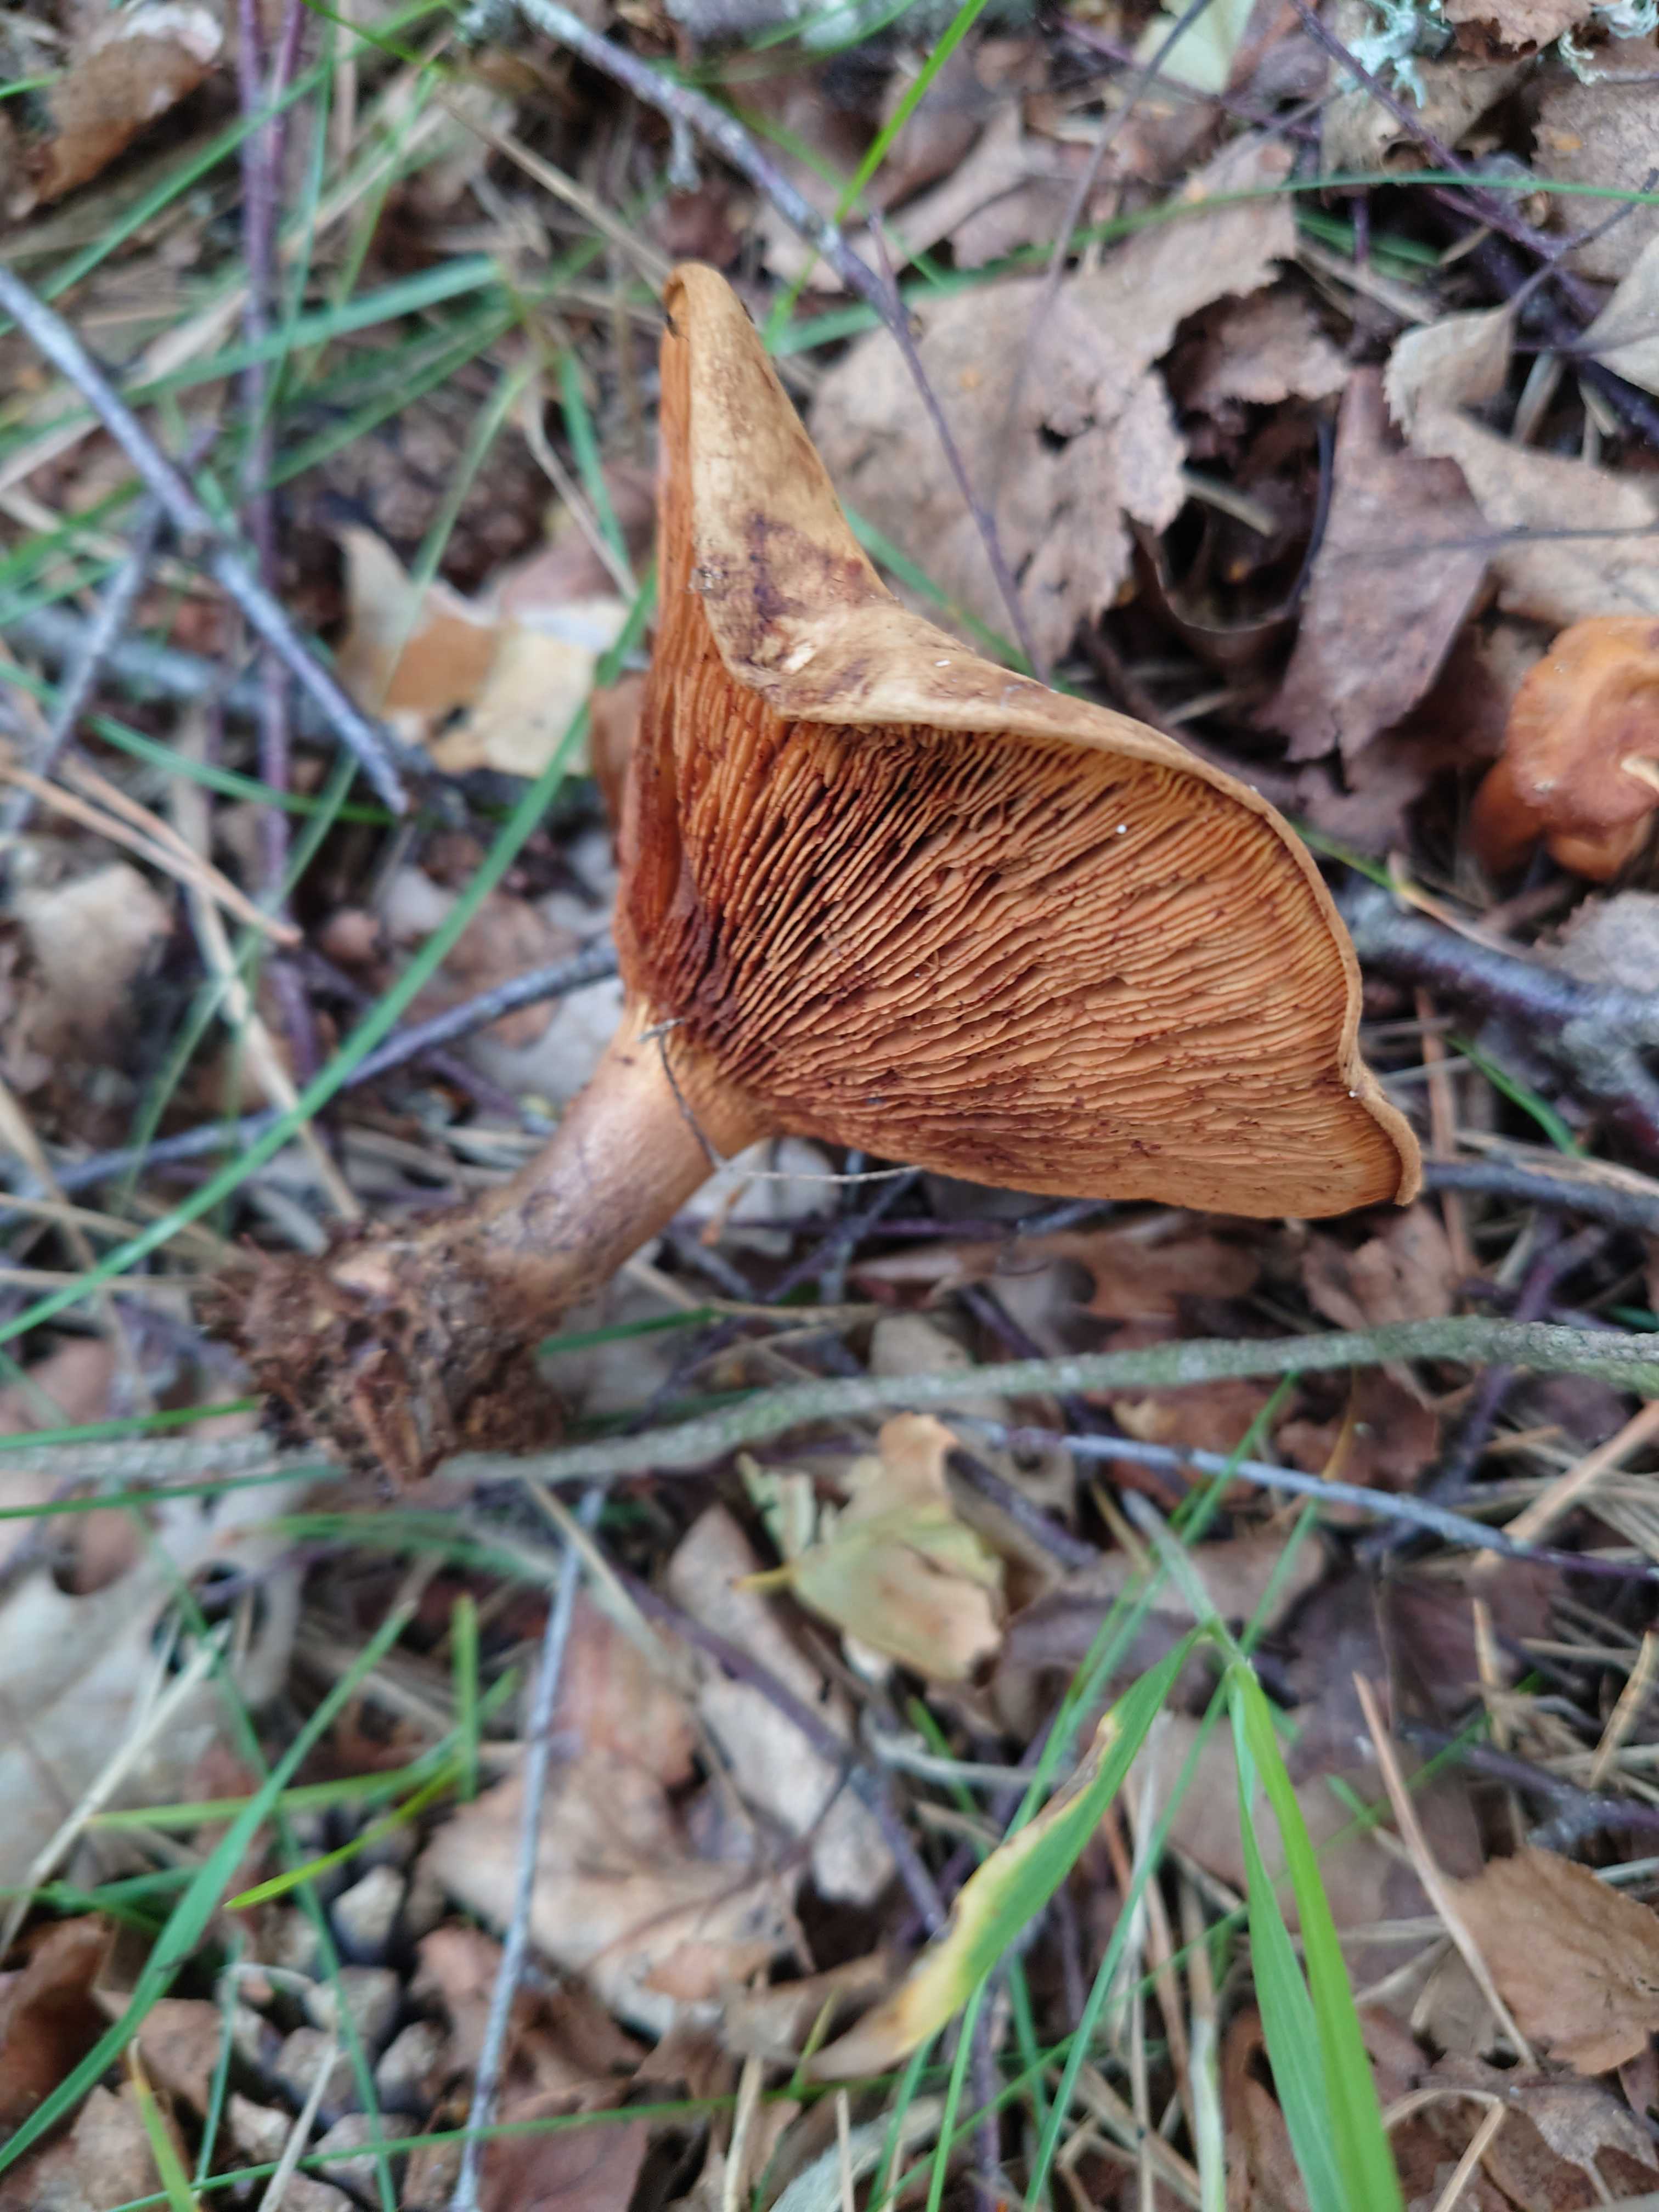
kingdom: Fungi
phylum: Basidiomycota
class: Agaricomycetes
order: Boletales
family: Paxillaceae
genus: Paxillus
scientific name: Paxillus involutus
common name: almindelig netbladhat
